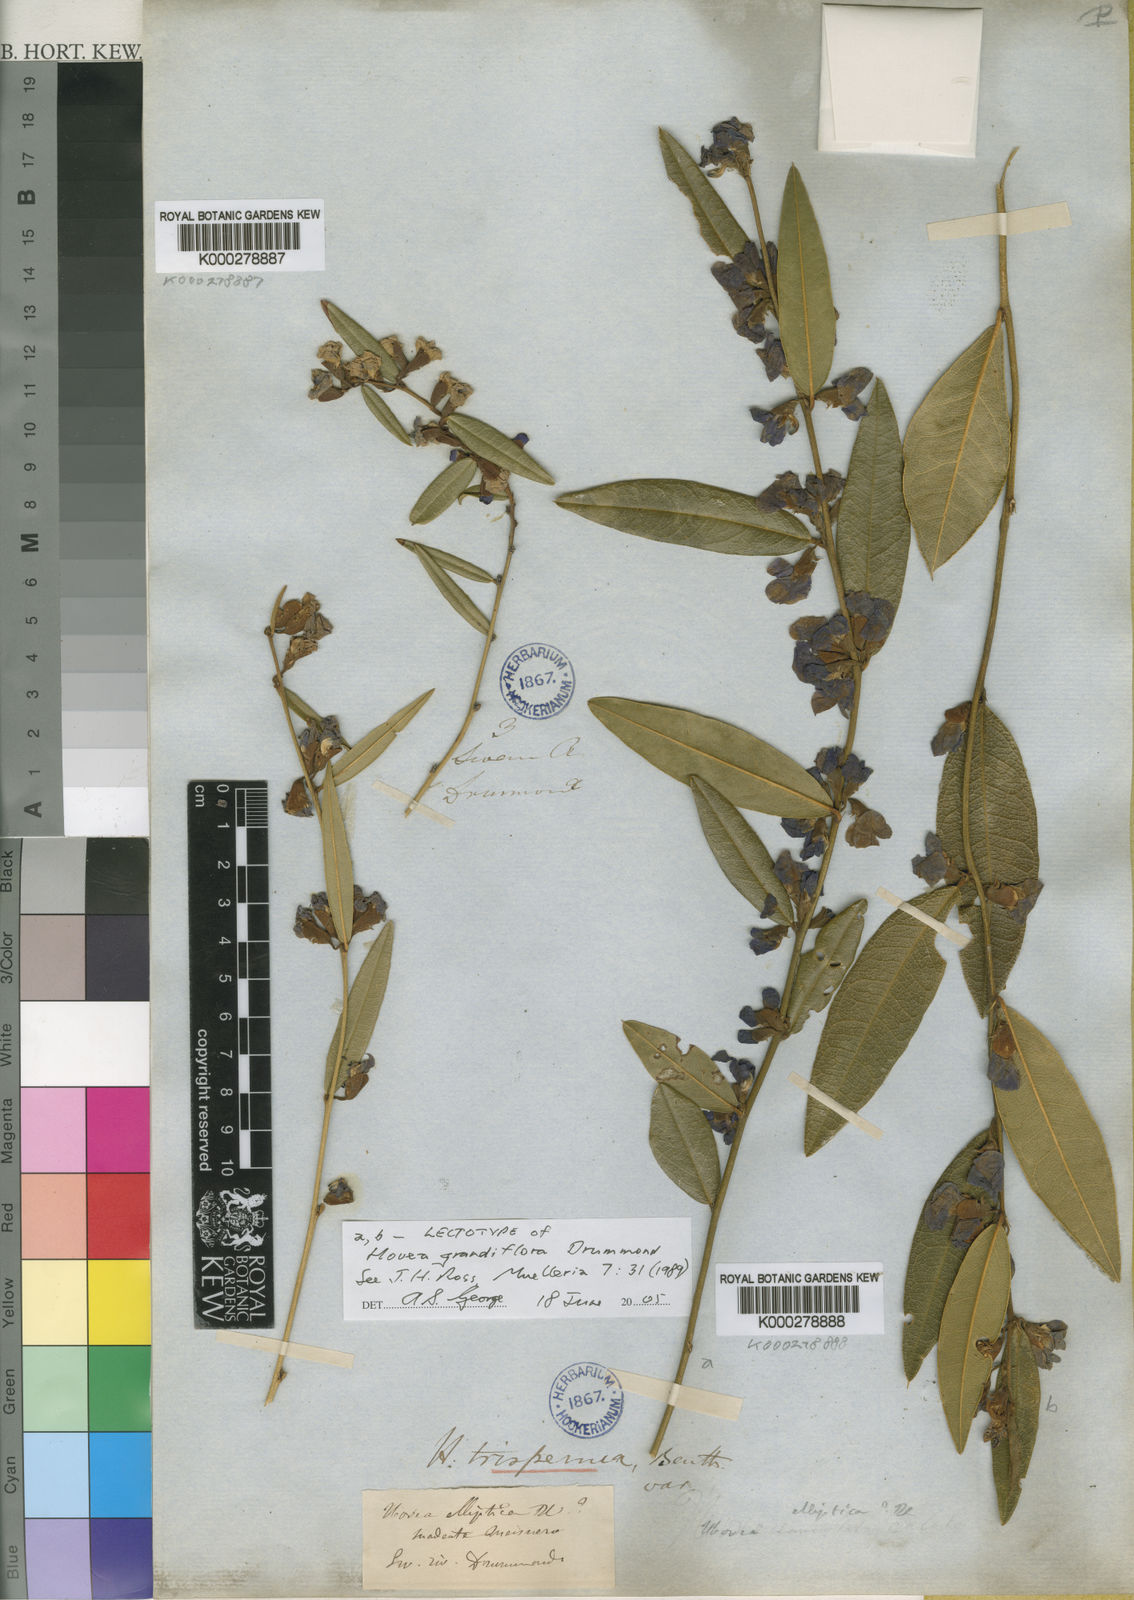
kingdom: Plantae
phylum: Tracheophyta
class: Magnoliopsida
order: Fabales
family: Fabaceae
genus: Hovea
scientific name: Hovea trisperma
